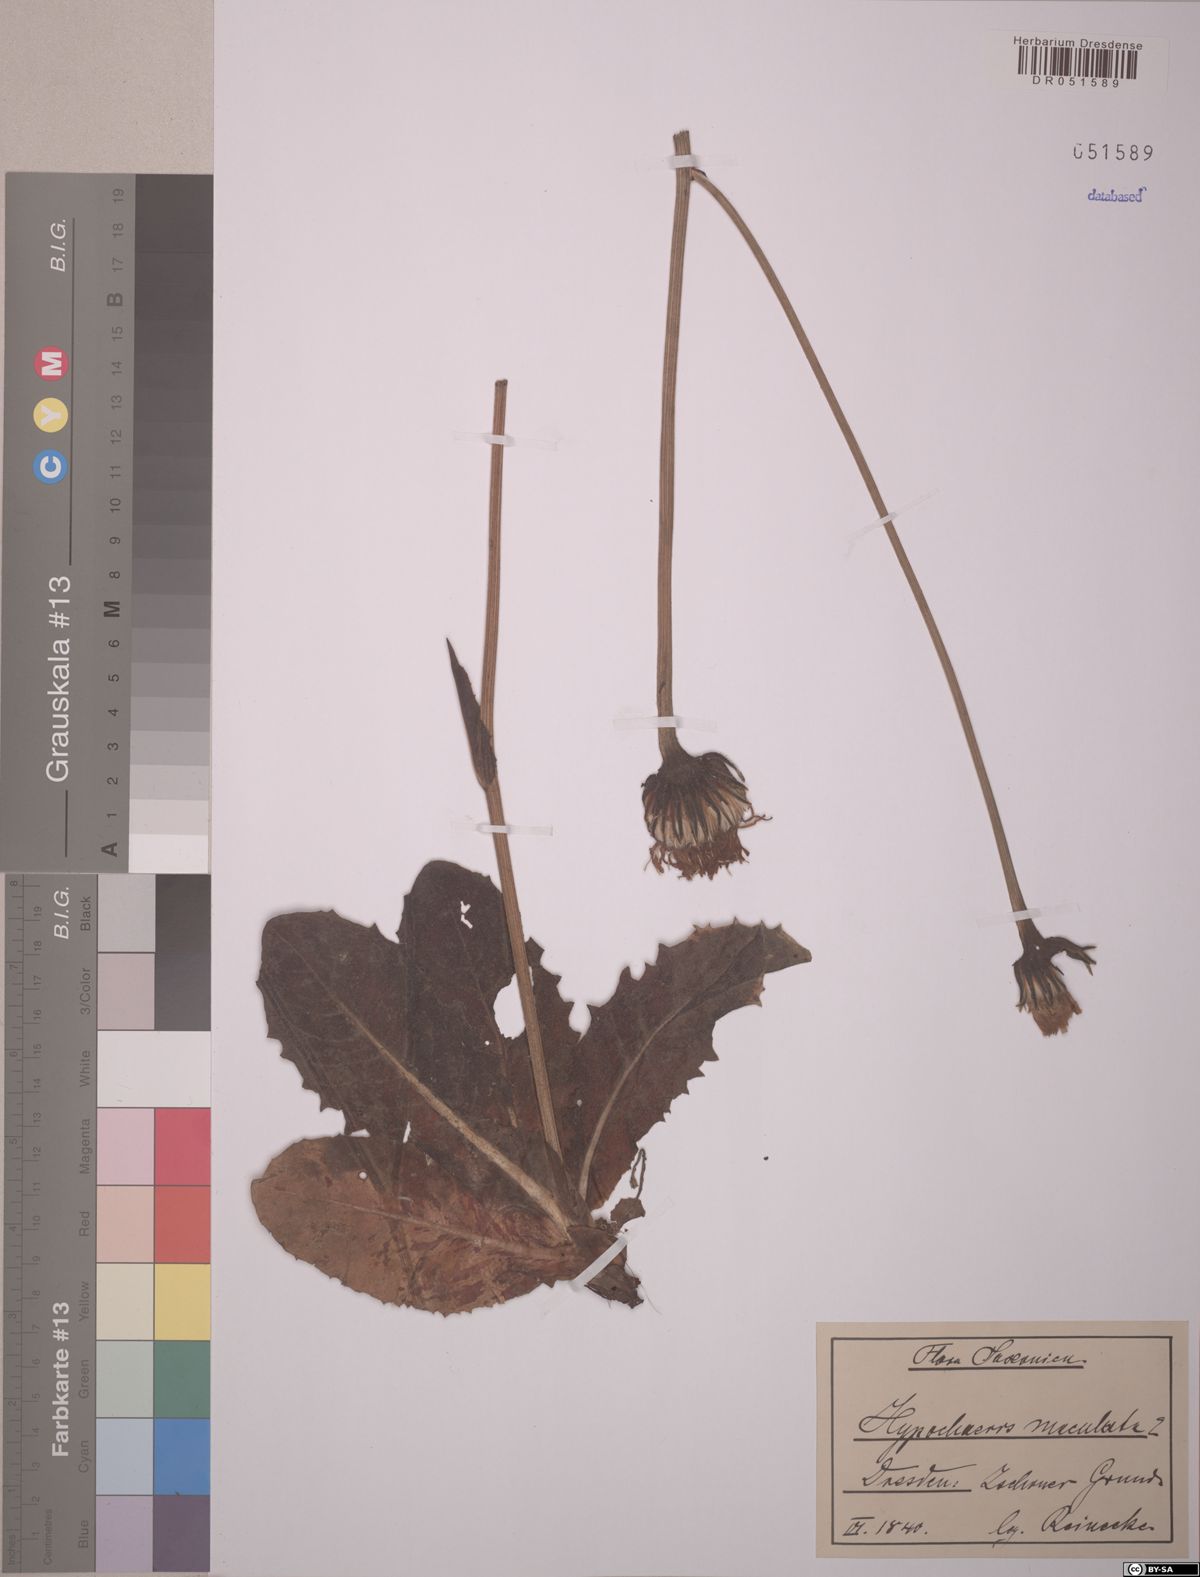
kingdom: Plantae
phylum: Tracheophyta
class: Magnoliopsida
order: Asterales
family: Asteraceae
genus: Trommsdorffia
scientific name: Trommsdorffia maculata
